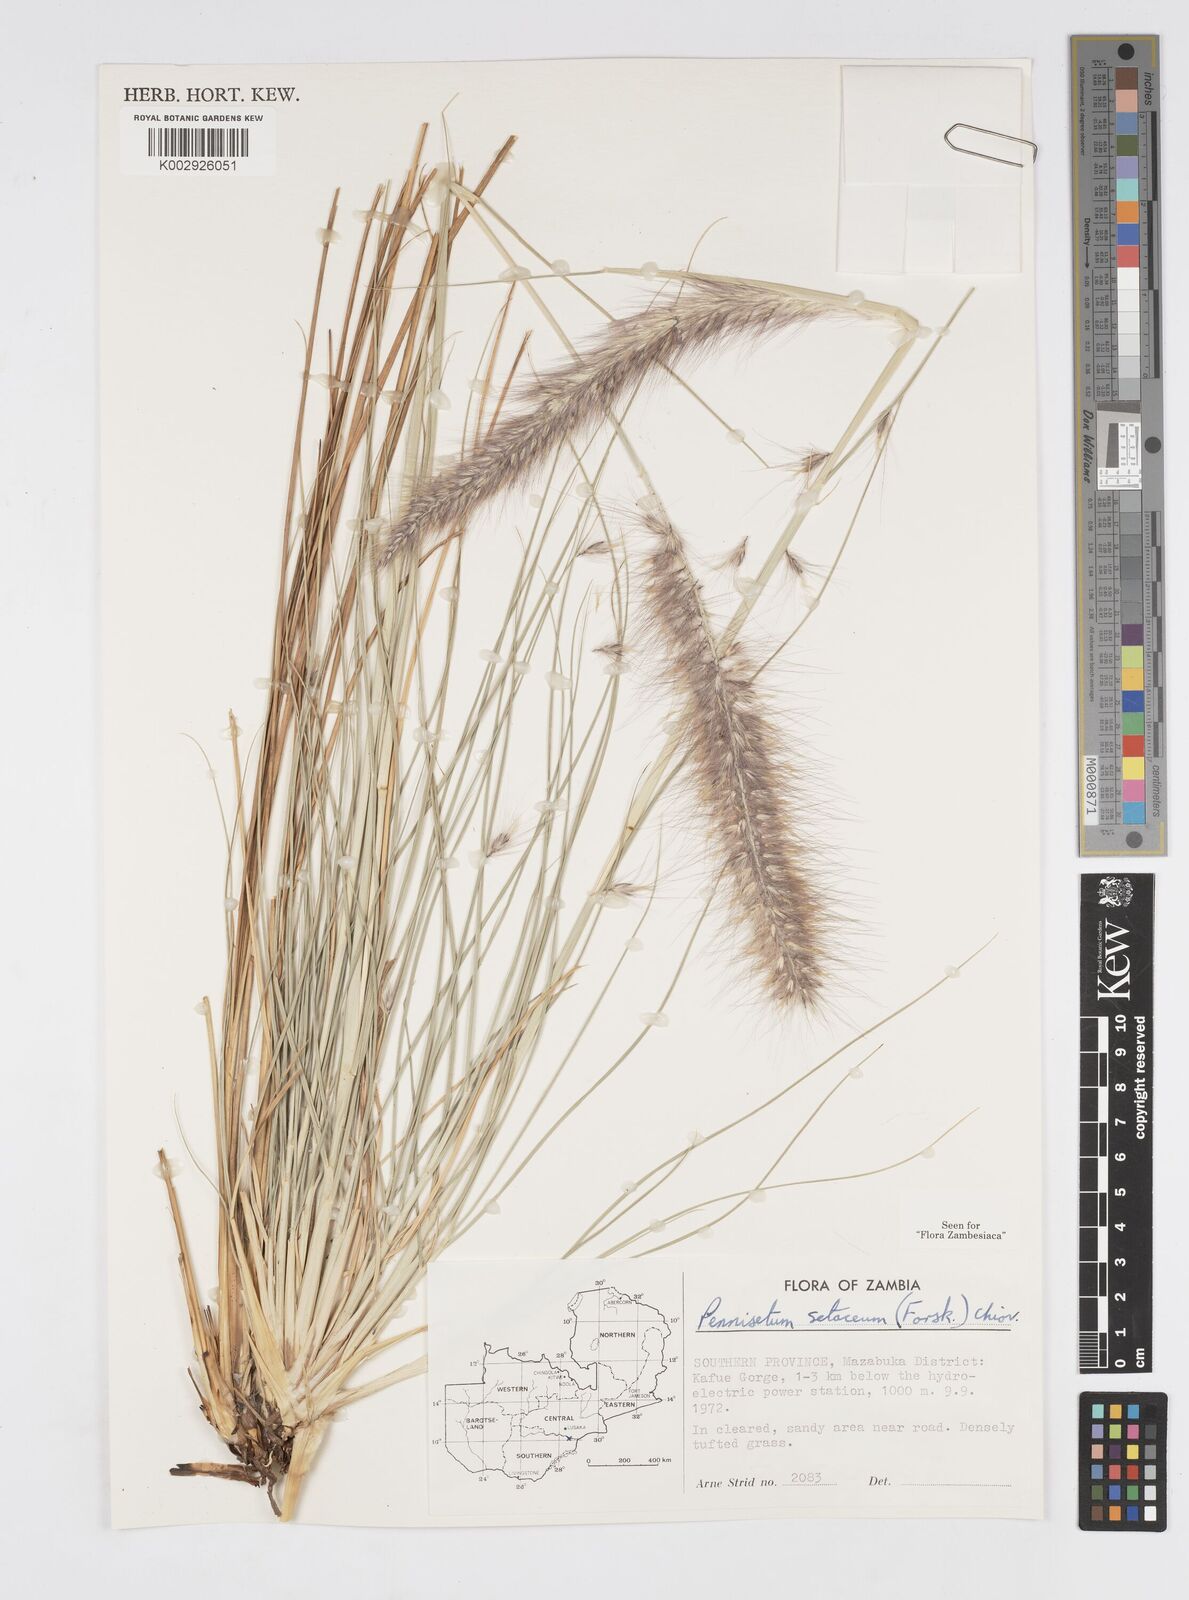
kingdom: Plantae
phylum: Tracheophyta
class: Liliopsida
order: Poales
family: Poaceae
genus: Cenchrus
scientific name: Cenchrus setaceus
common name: Crimson fountaingrass
